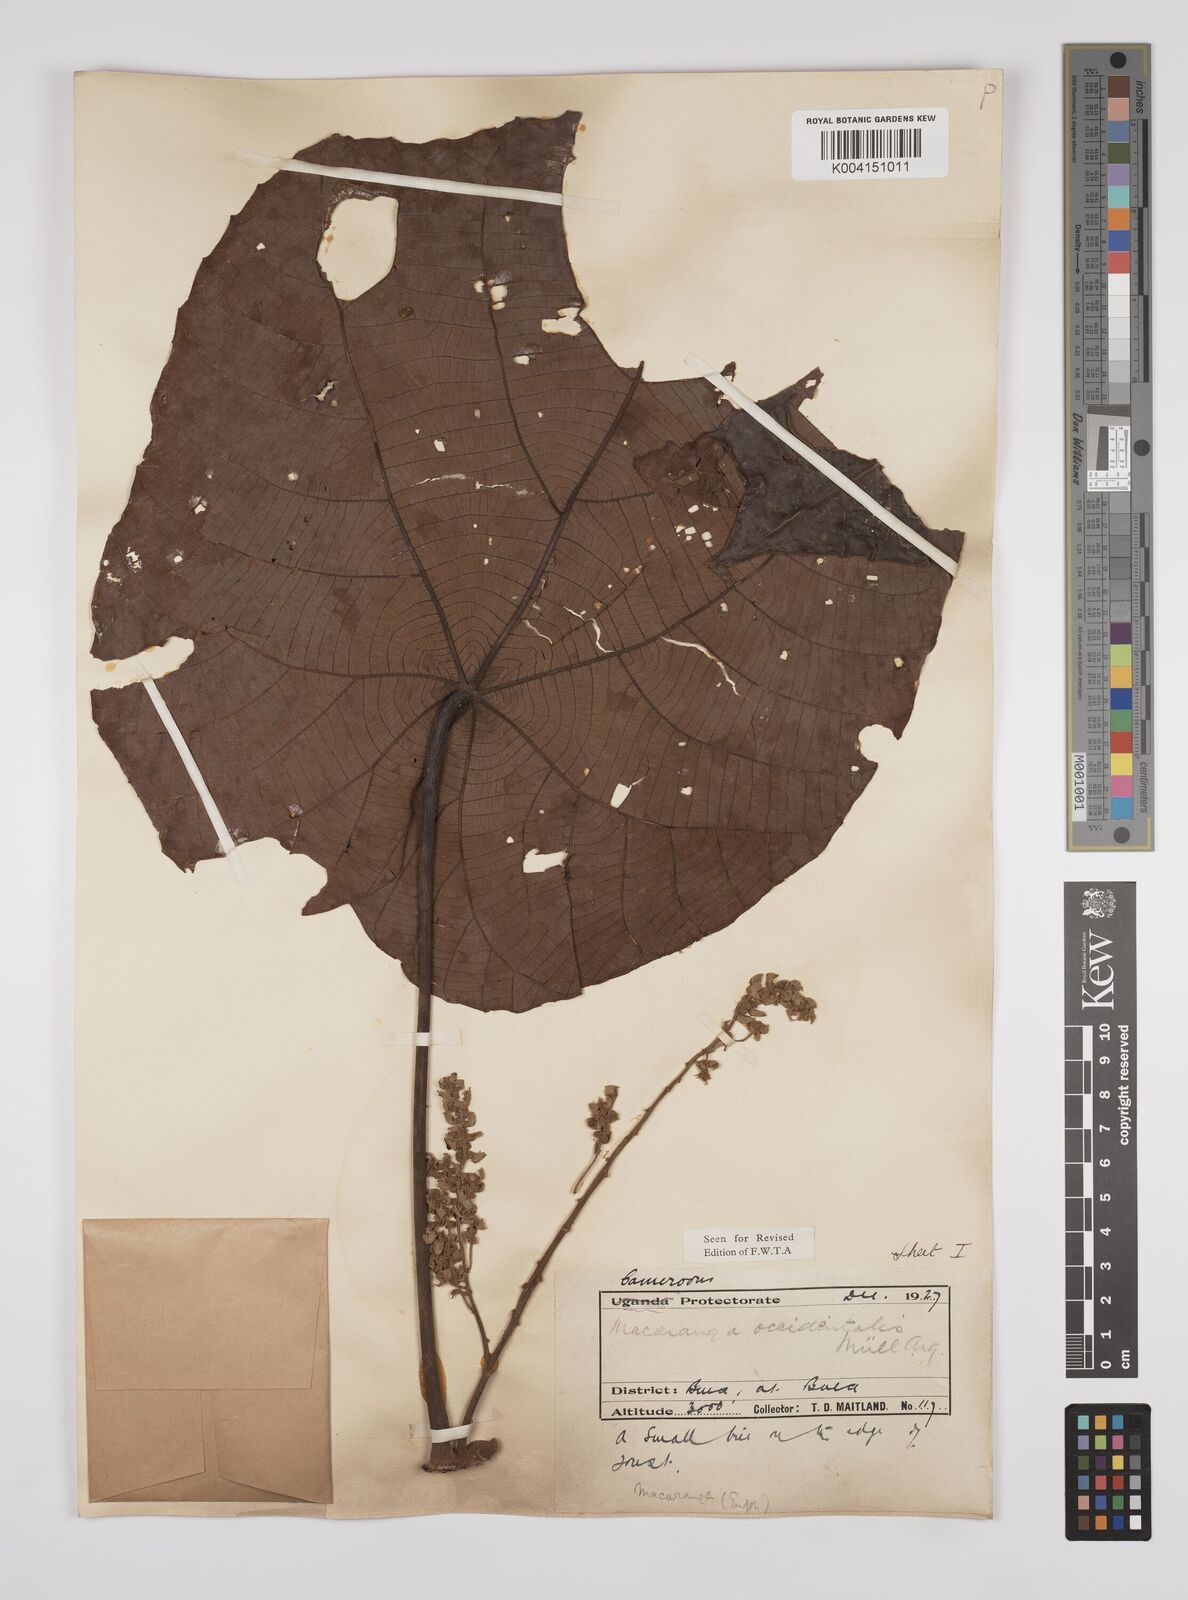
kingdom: Plantae
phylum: Tracheophyta
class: Magnoliopsida
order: Malpighiales
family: Euphorbiaceae
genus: Macaranga
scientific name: Macaranga occidentalis
